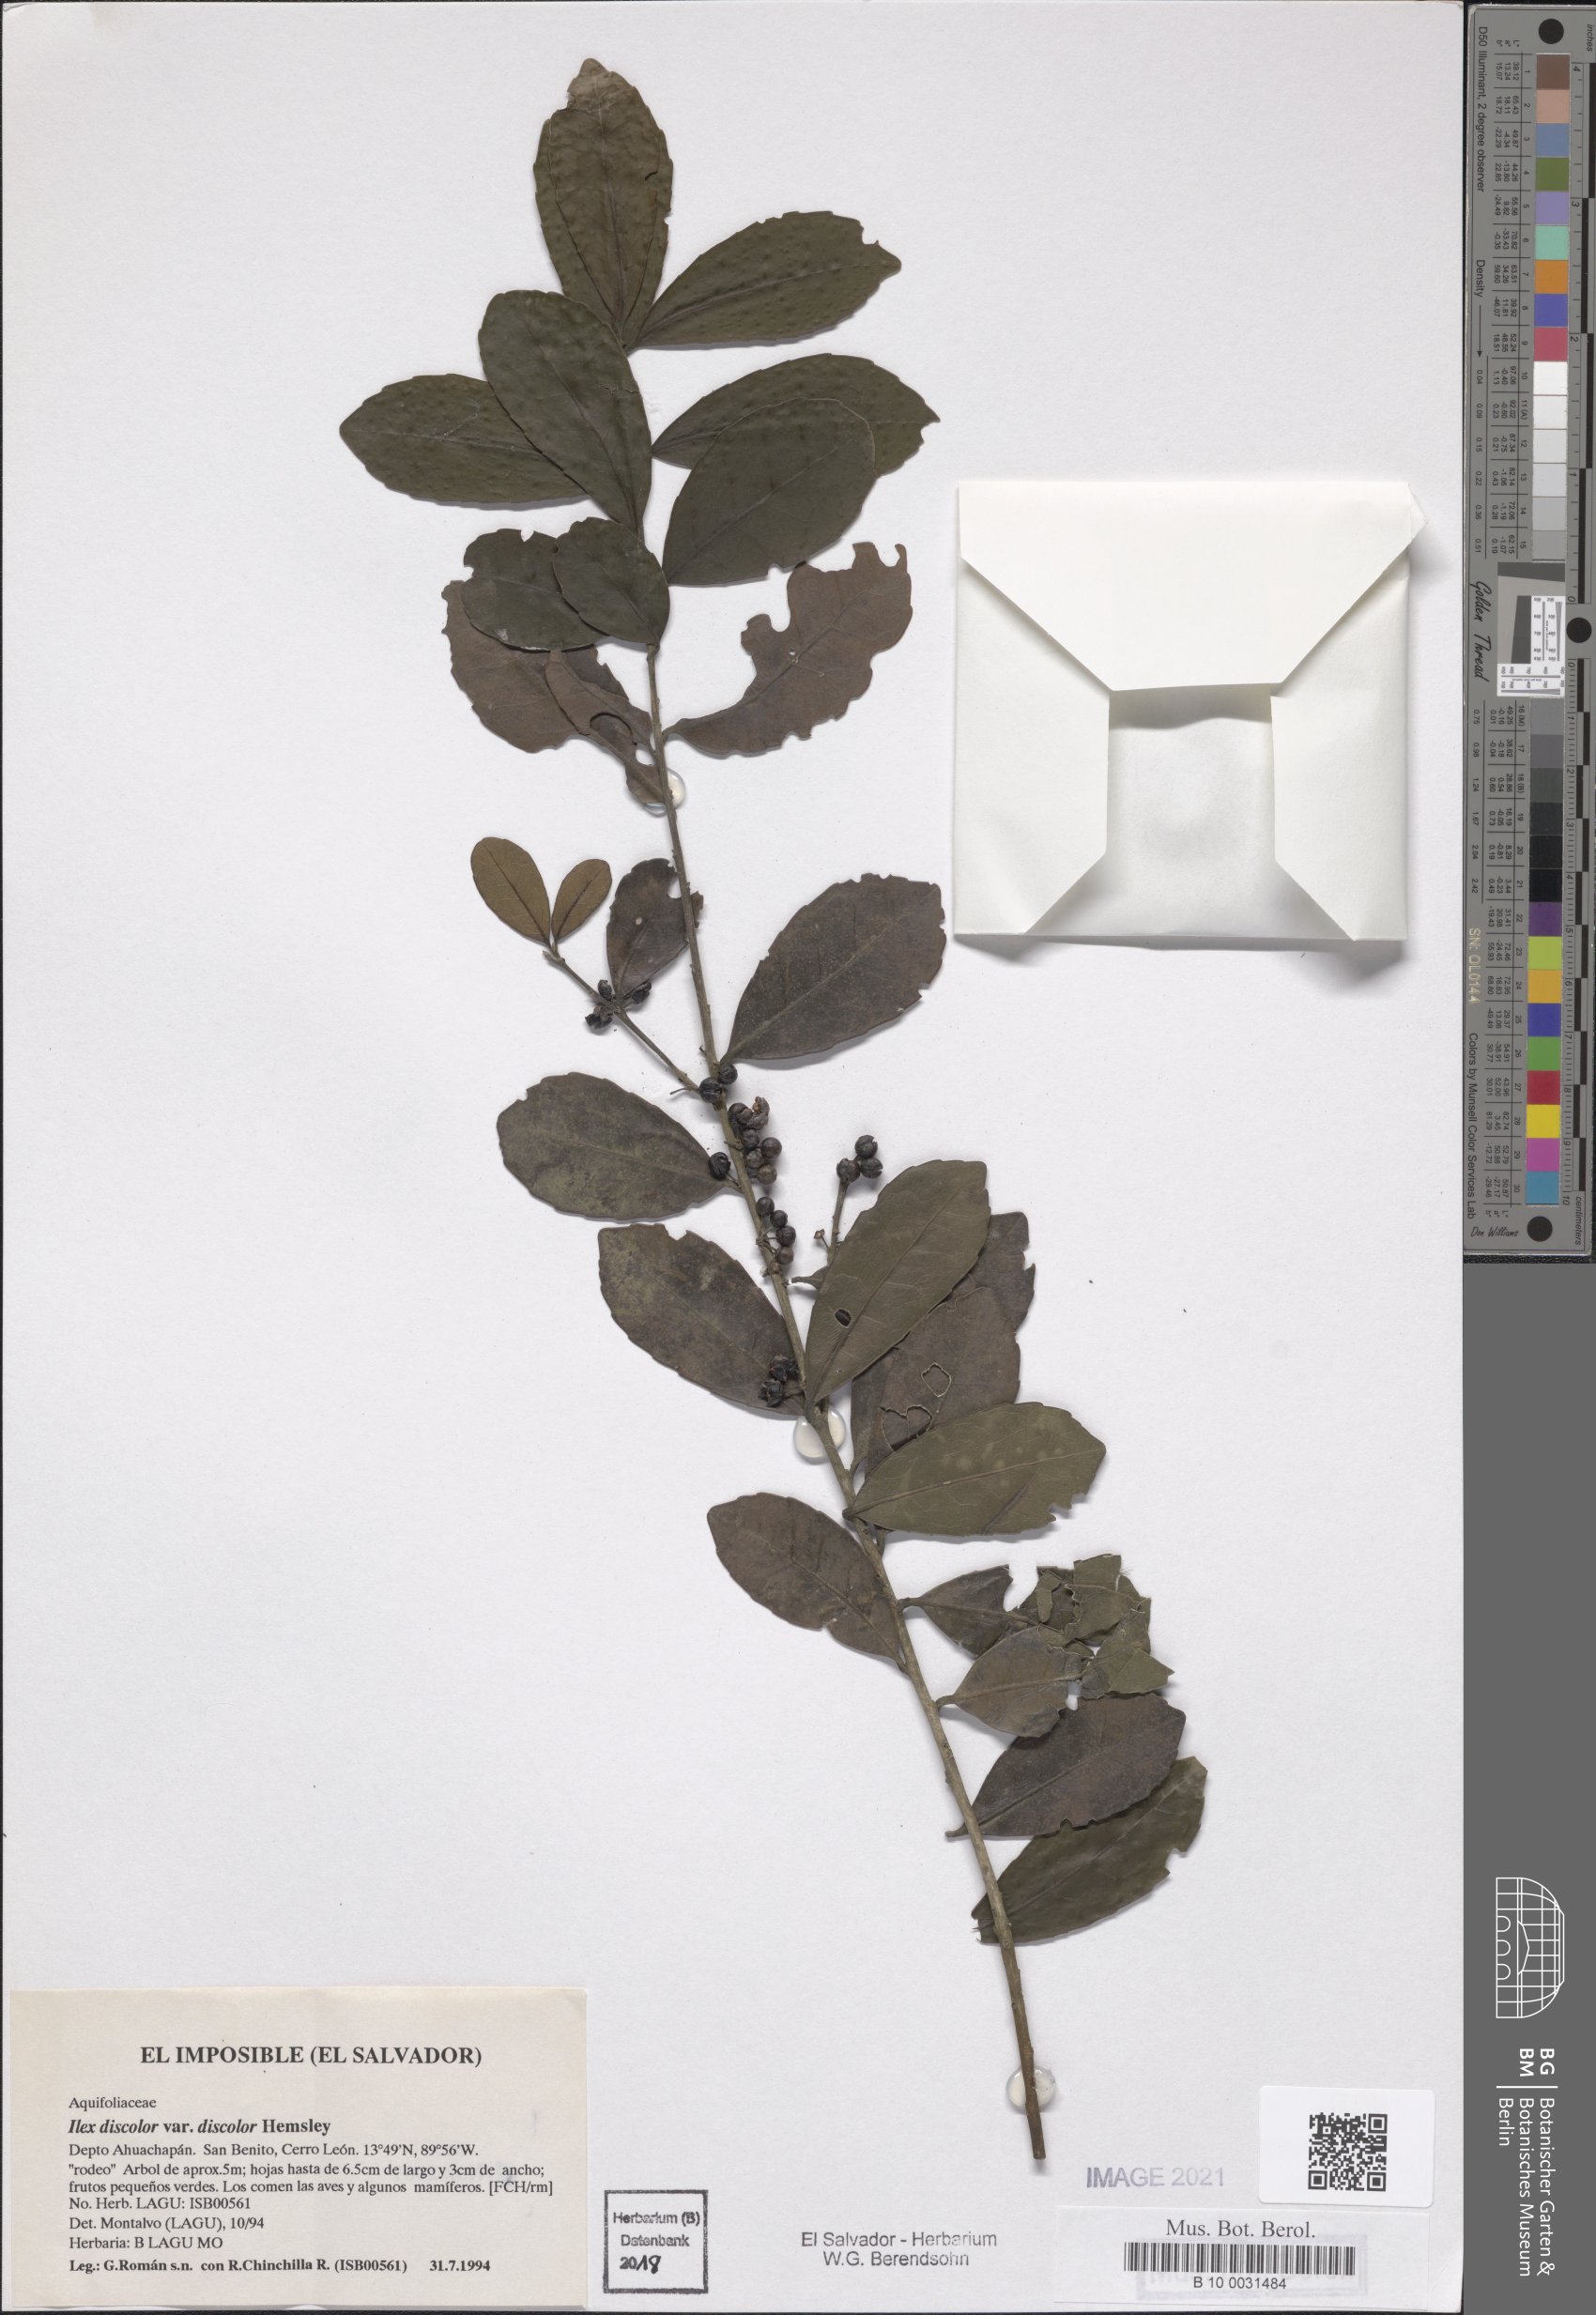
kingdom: Plantae
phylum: Tracheophyta
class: Magnoliopsida
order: Aquifoliales
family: Aquifoliaceae
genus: Ilex
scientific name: Ilex discolor
